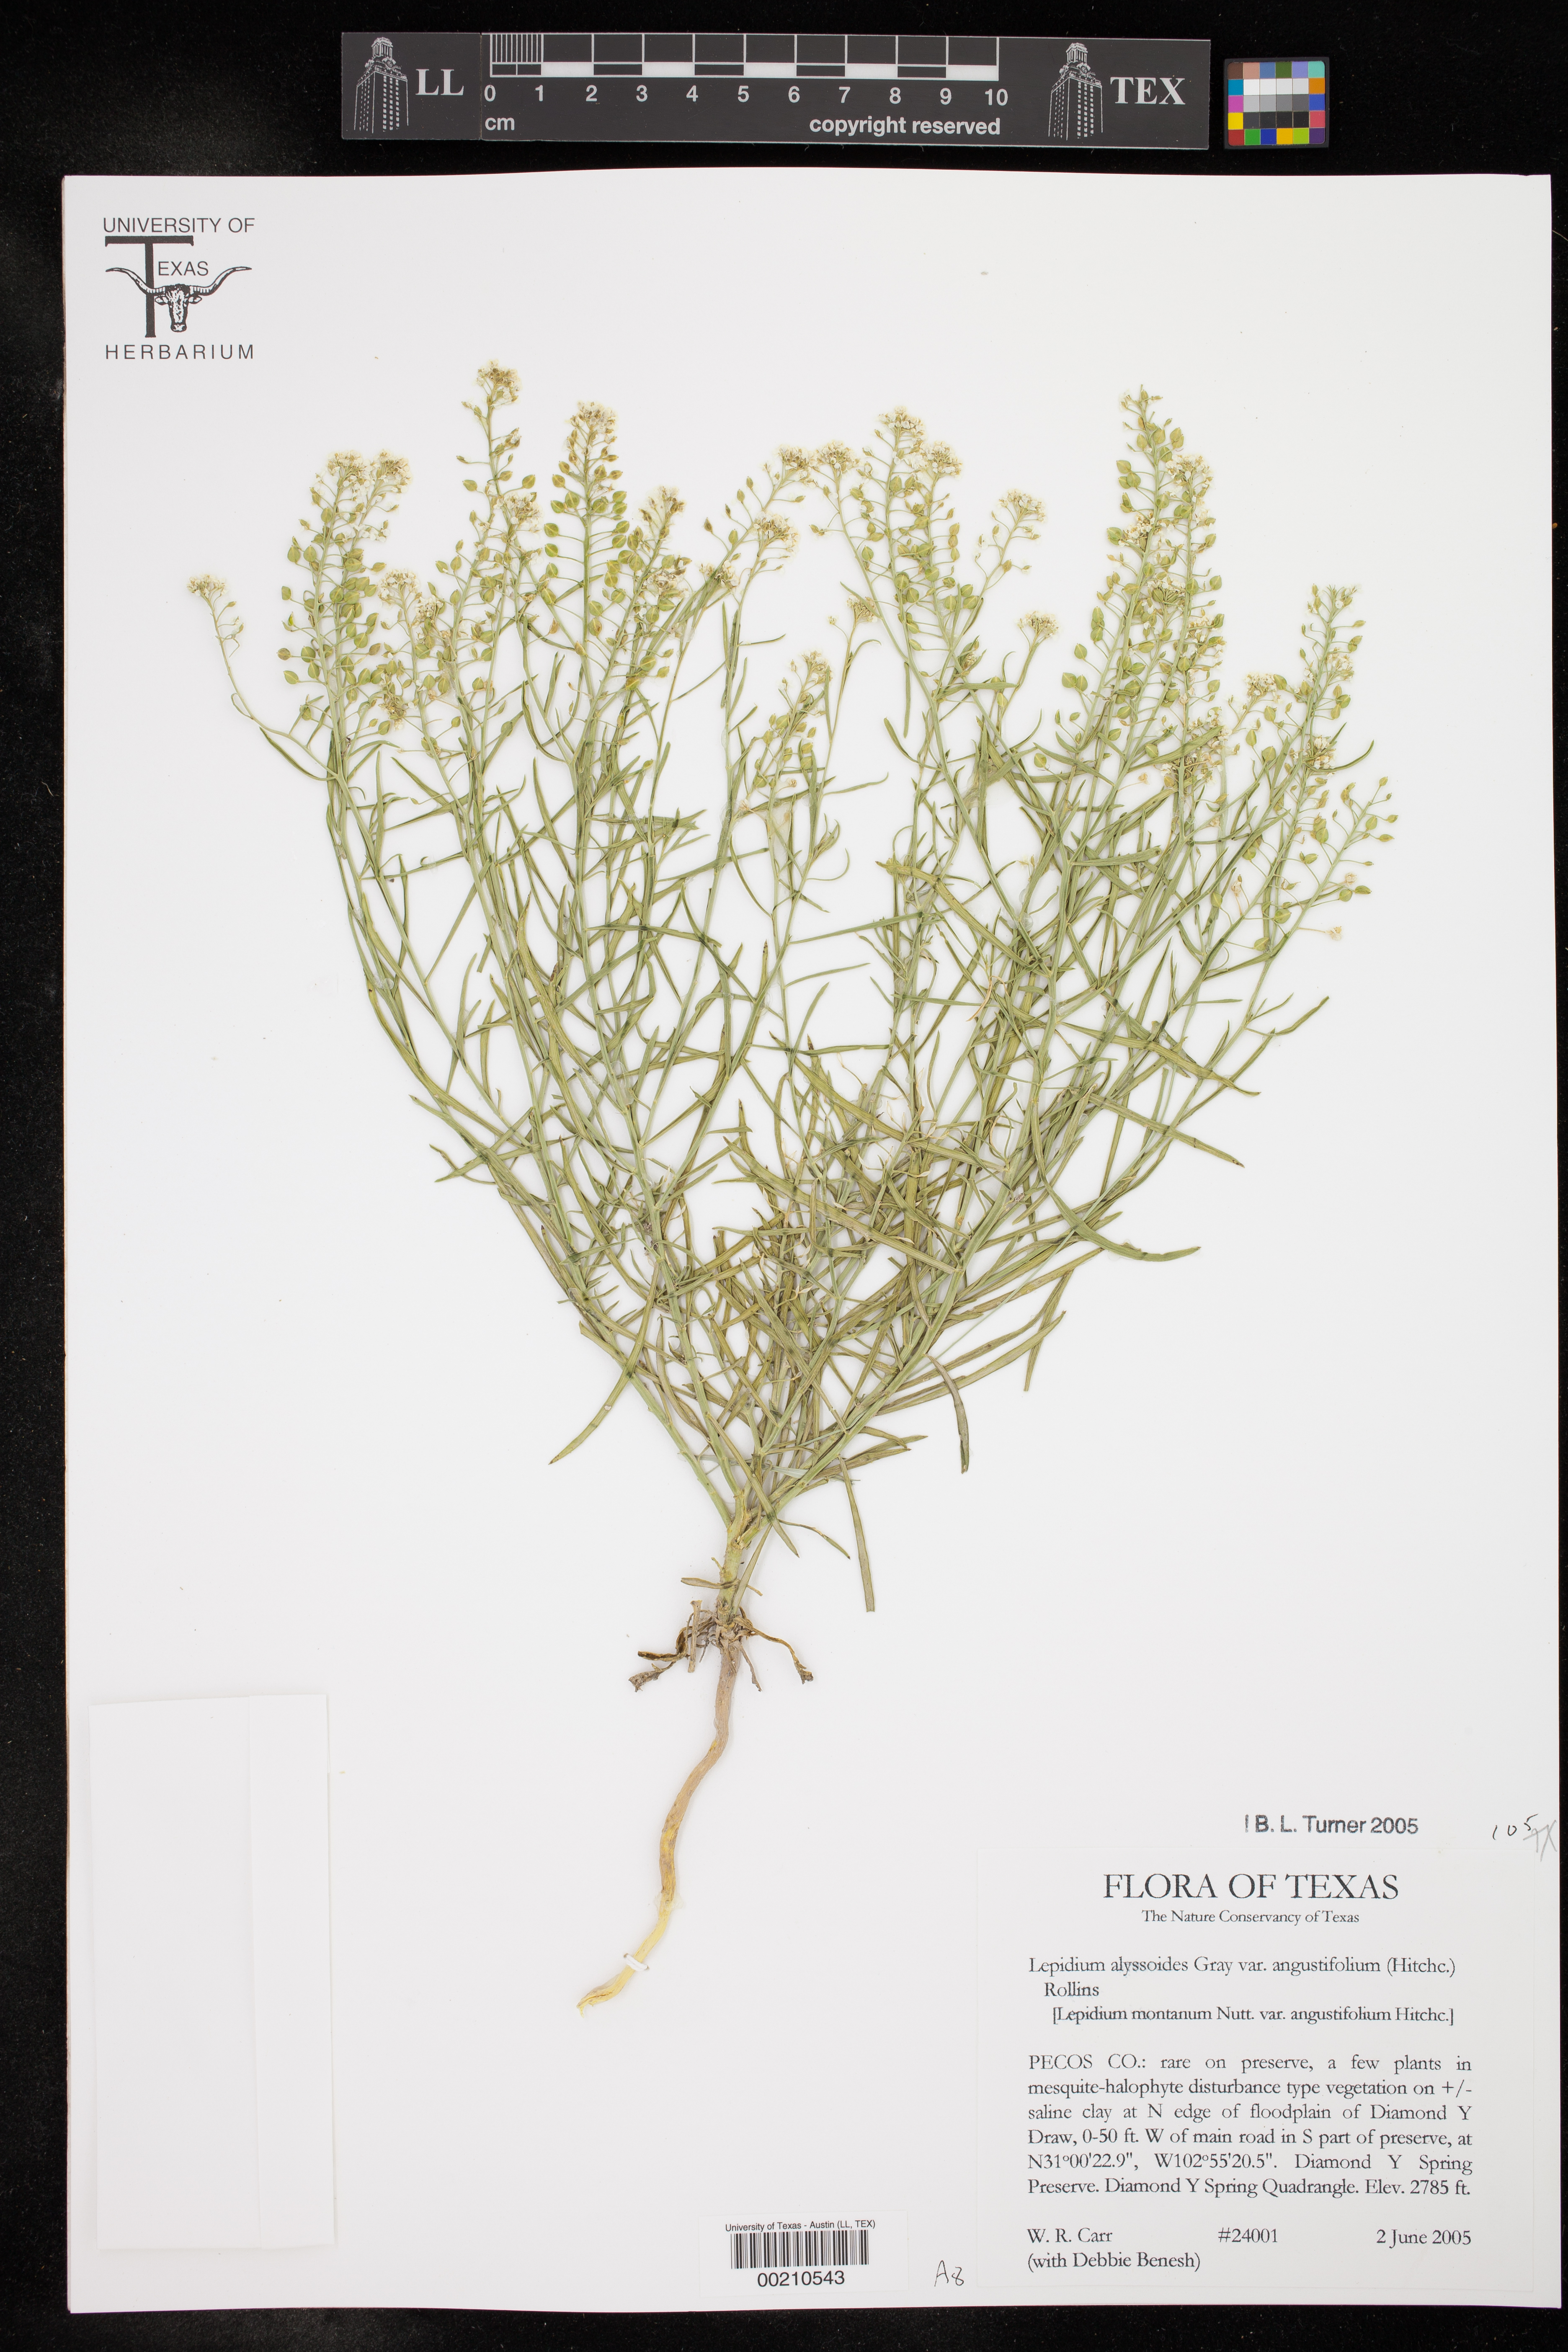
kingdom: Plantae
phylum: Tracheophyta
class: Magnoliopsida
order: Brassicales
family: Brassicaceae
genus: Lepidium
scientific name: Lepidium alyssoides
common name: Mesa pepperweed
